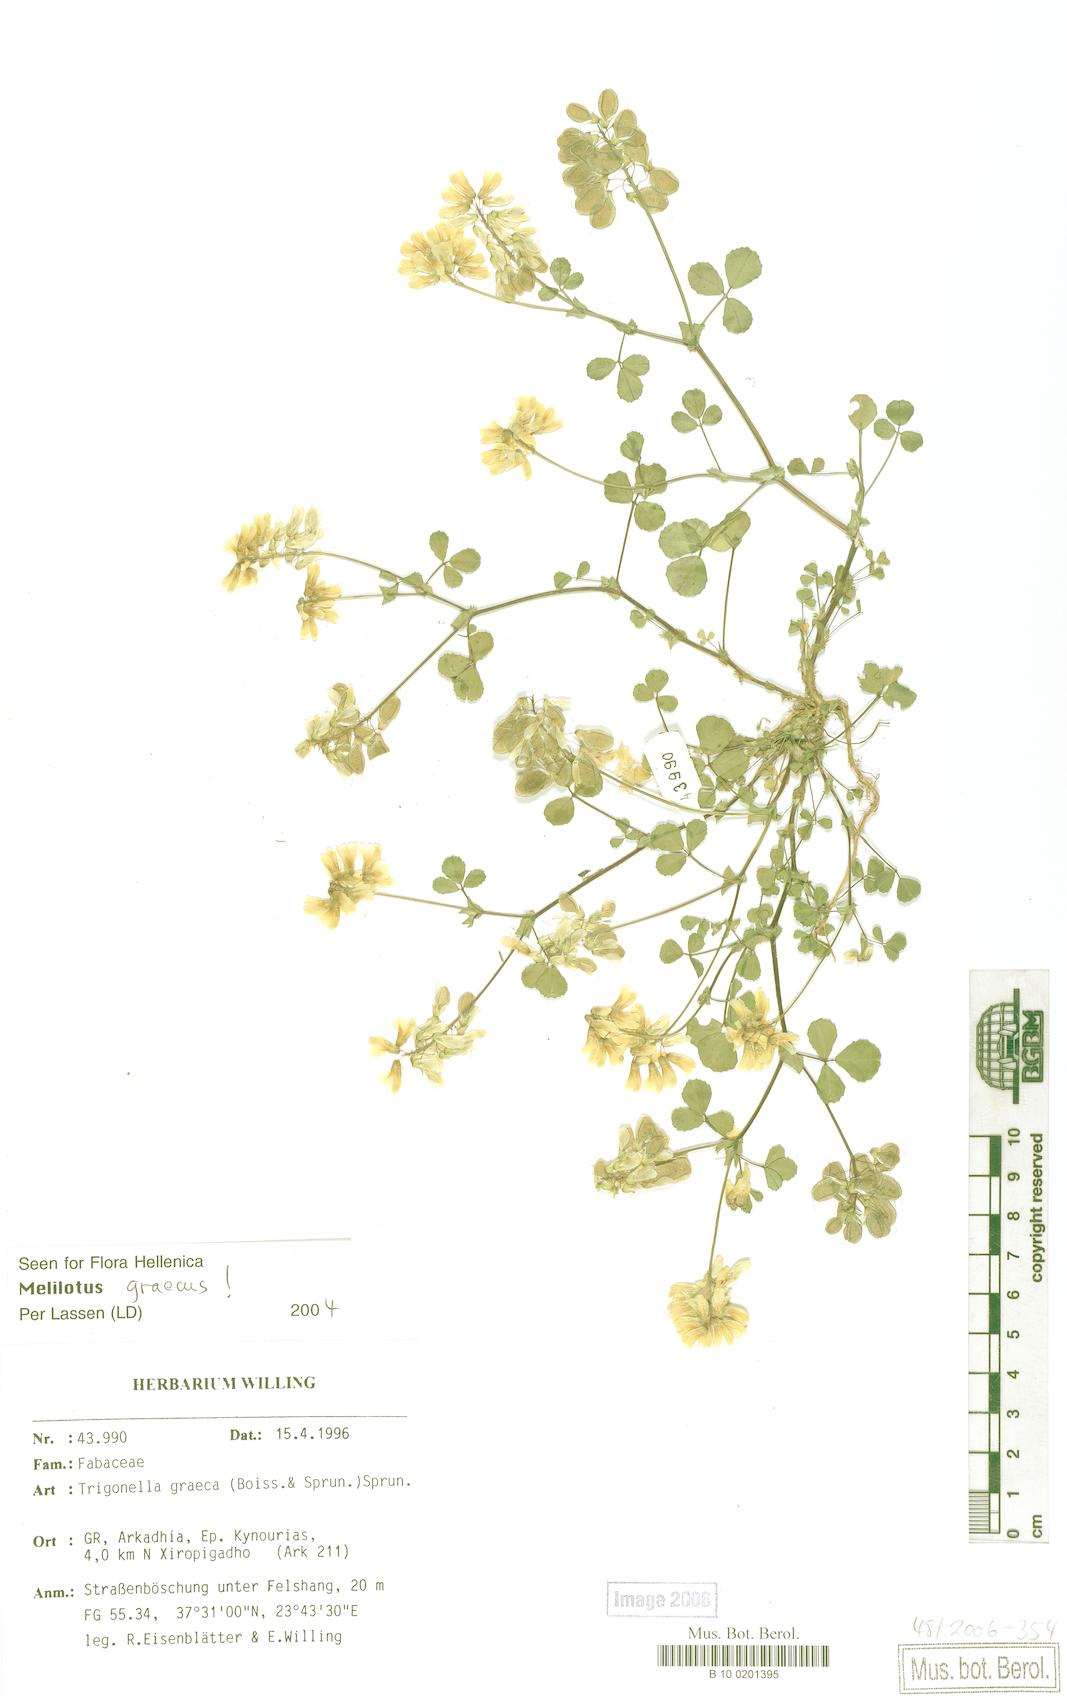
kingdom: Plantae
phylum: Tracheophyta
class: Magnoliopsida
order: Fabales
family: Fabaceae
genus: Trigonella
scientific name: Trigonella graeca
